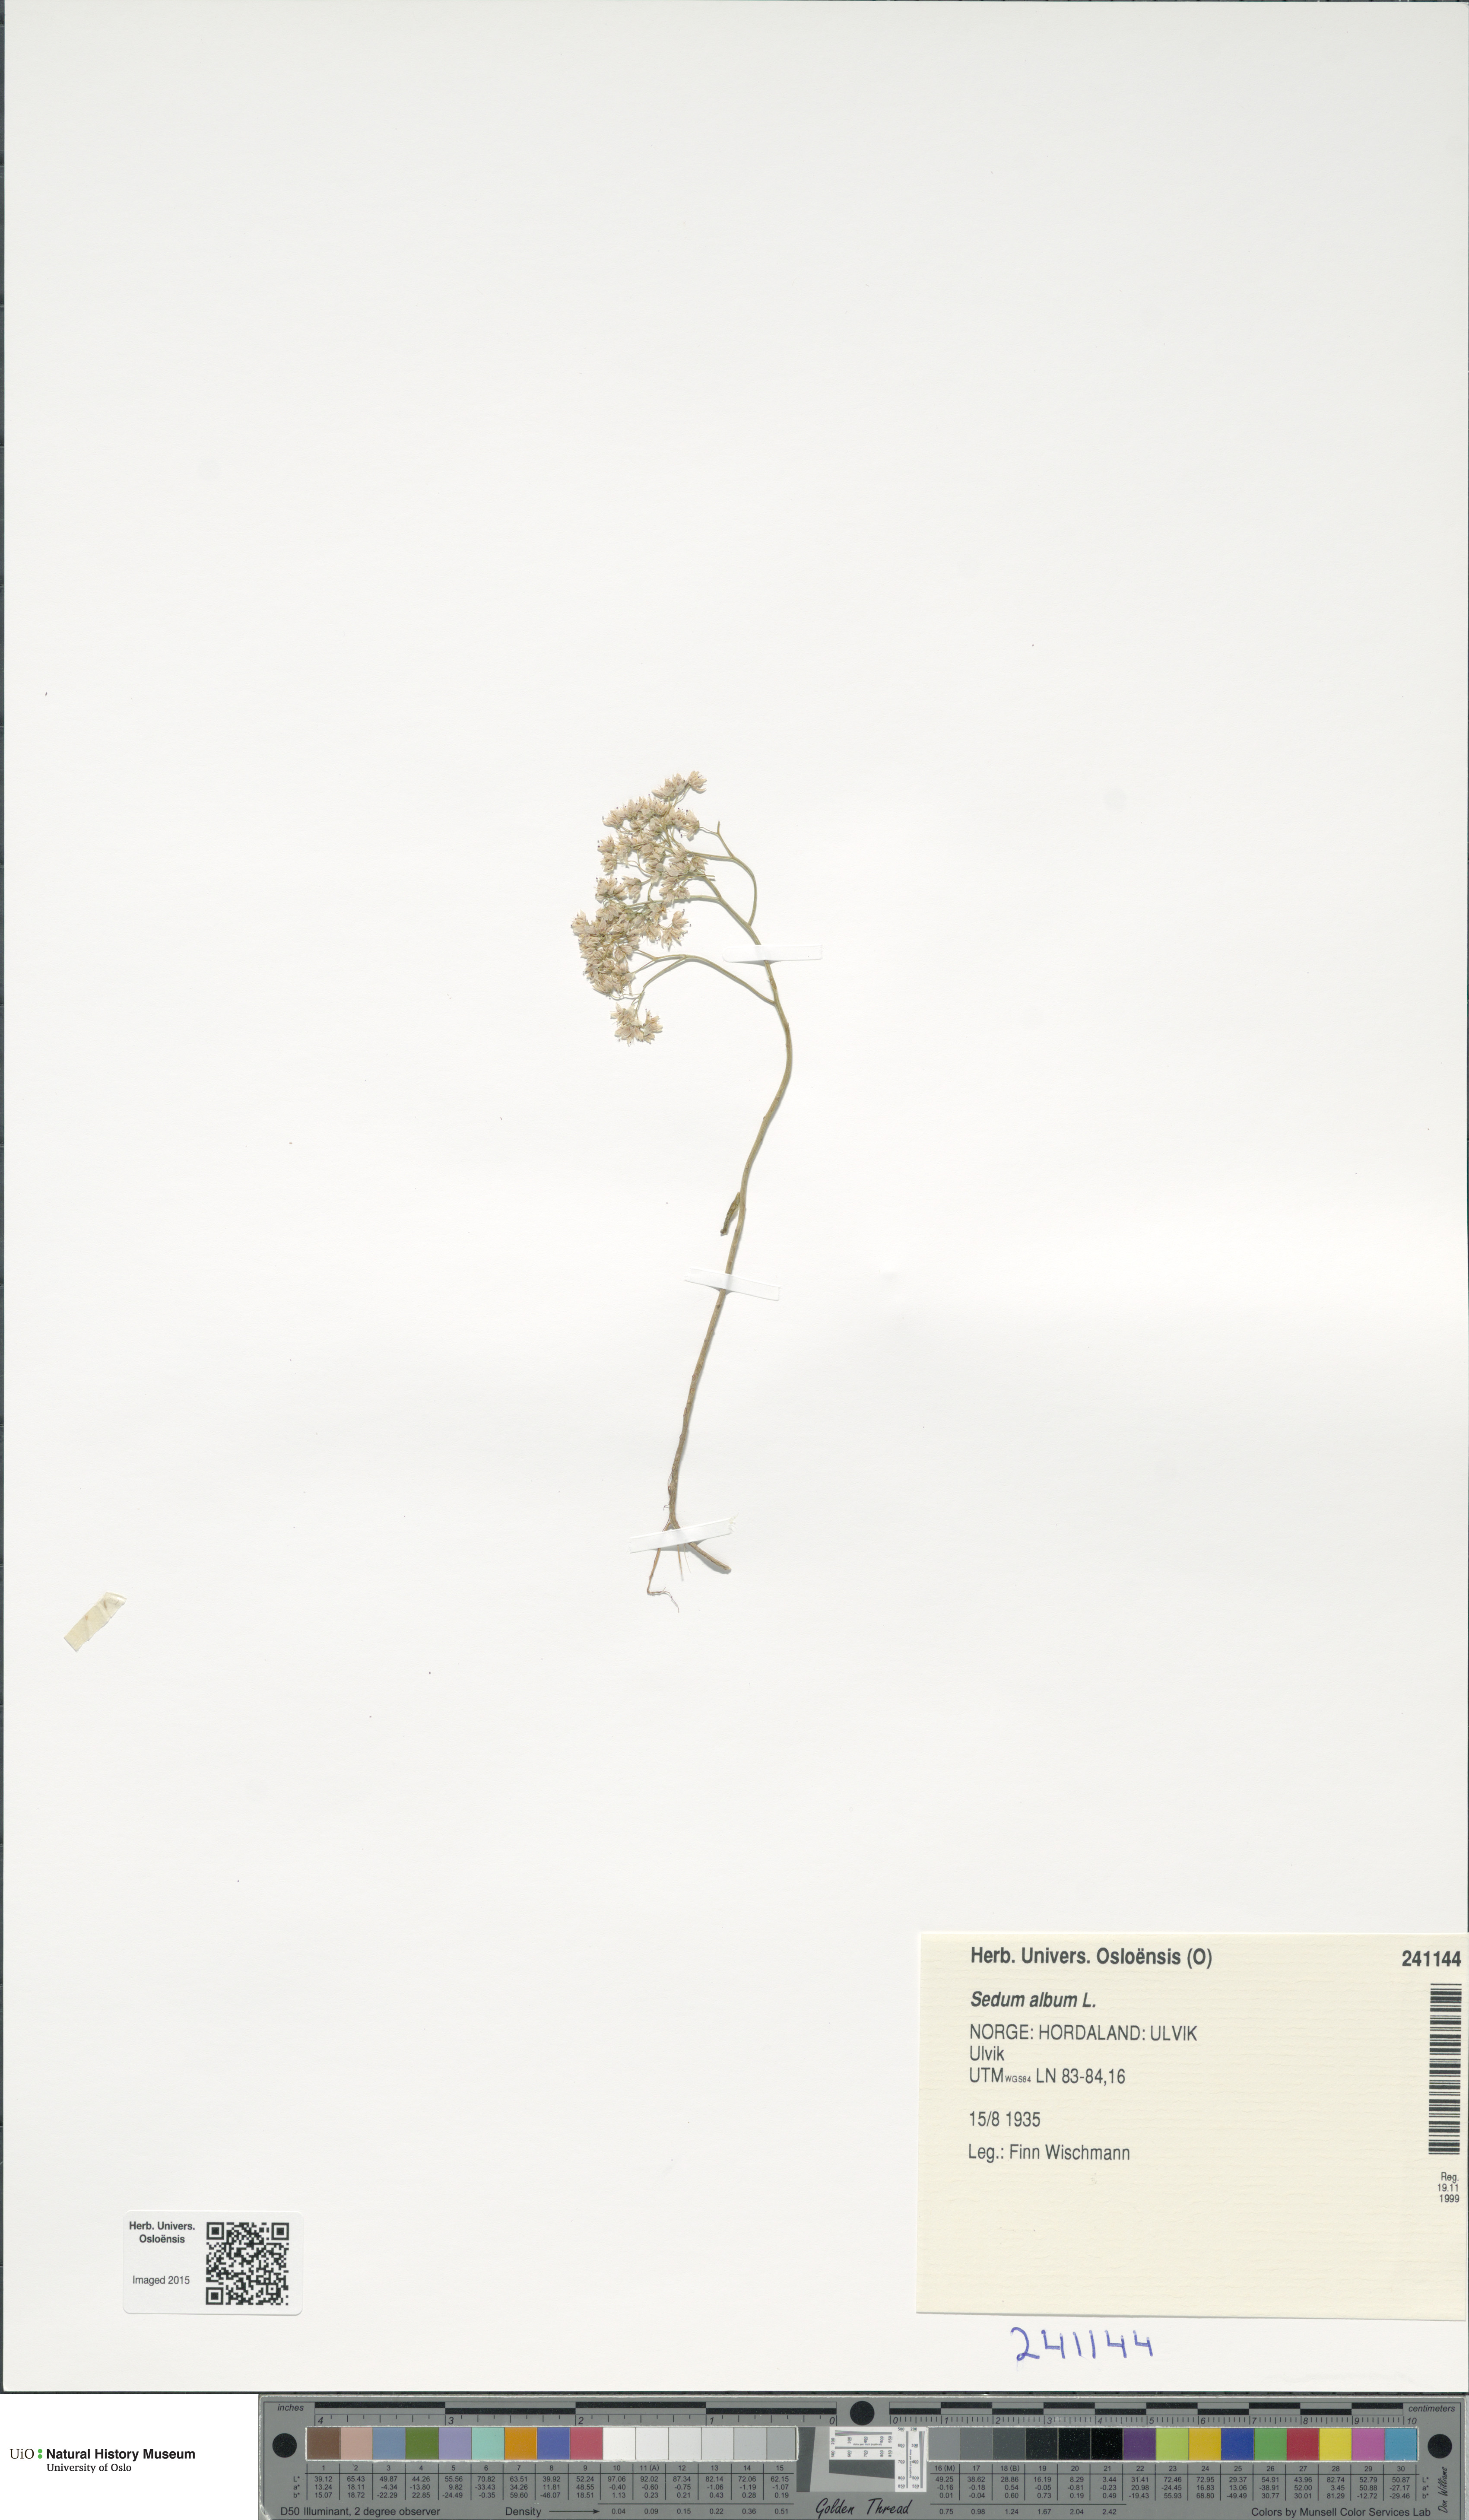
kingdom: Plantae
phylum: Tracheophyta
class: Magnoliopsida
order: Saxifragales
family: Crassulaceae
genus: Sedum
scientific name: Sedum album
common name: White stonecrop
